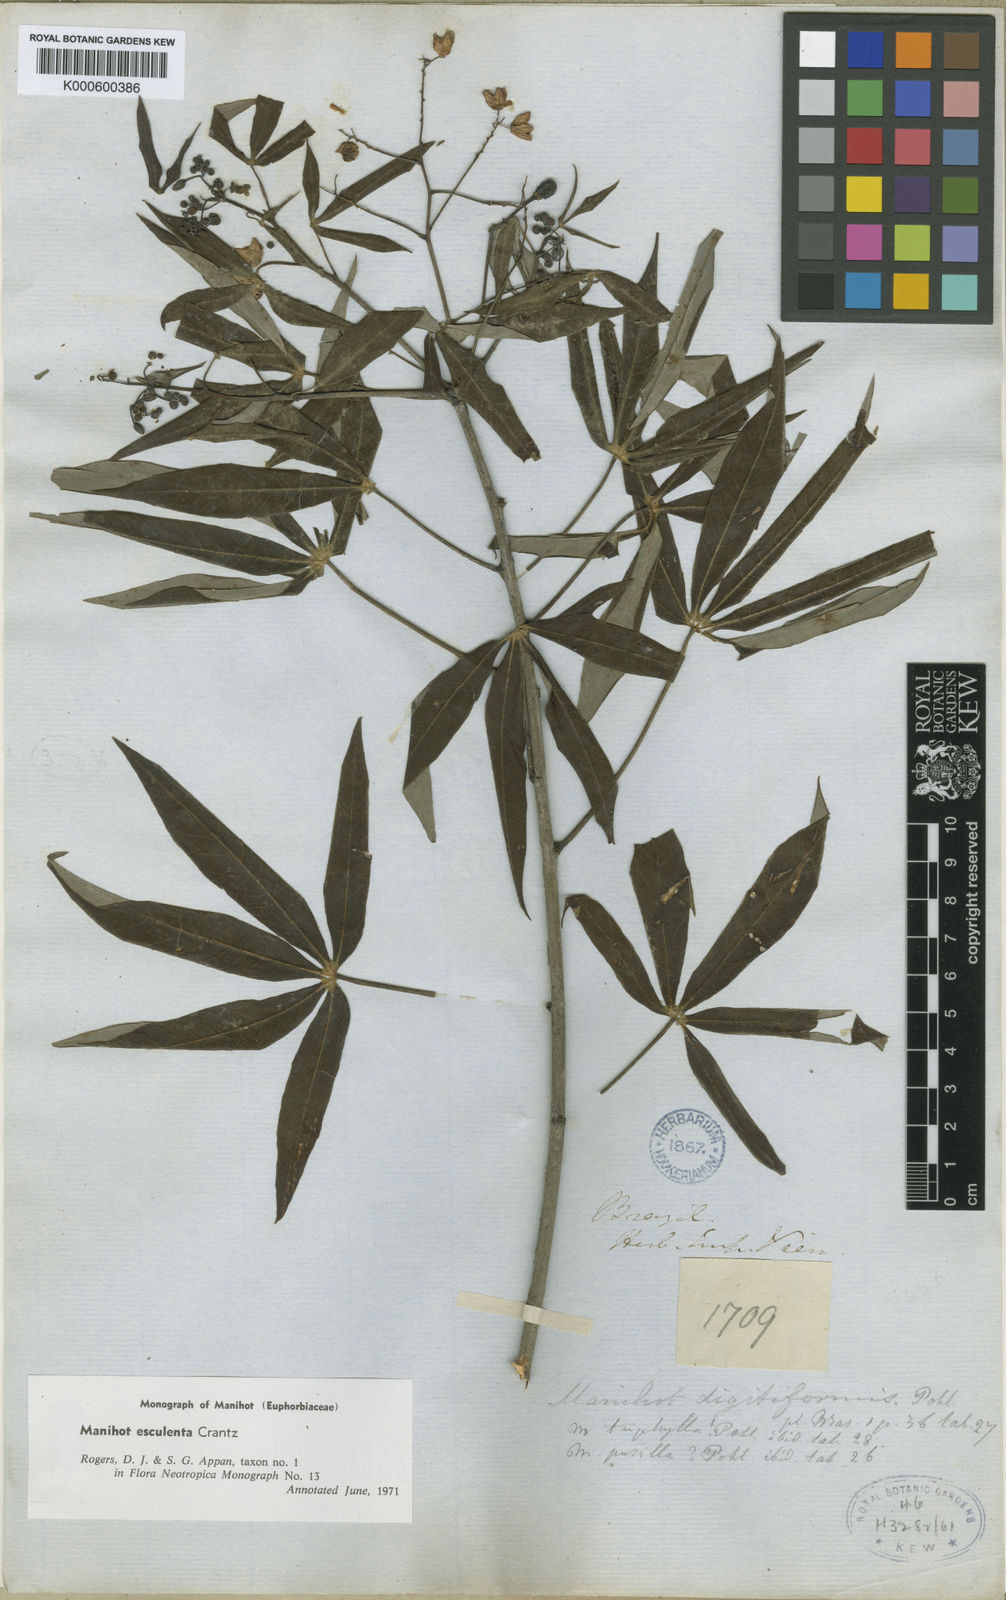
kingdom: Plantae
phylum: Tracheophyta
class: Magnoliopsida
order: Malpighiales
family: Euphorbiaceae
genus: Manihot
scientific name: Manihot esculenta
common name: Cassava
